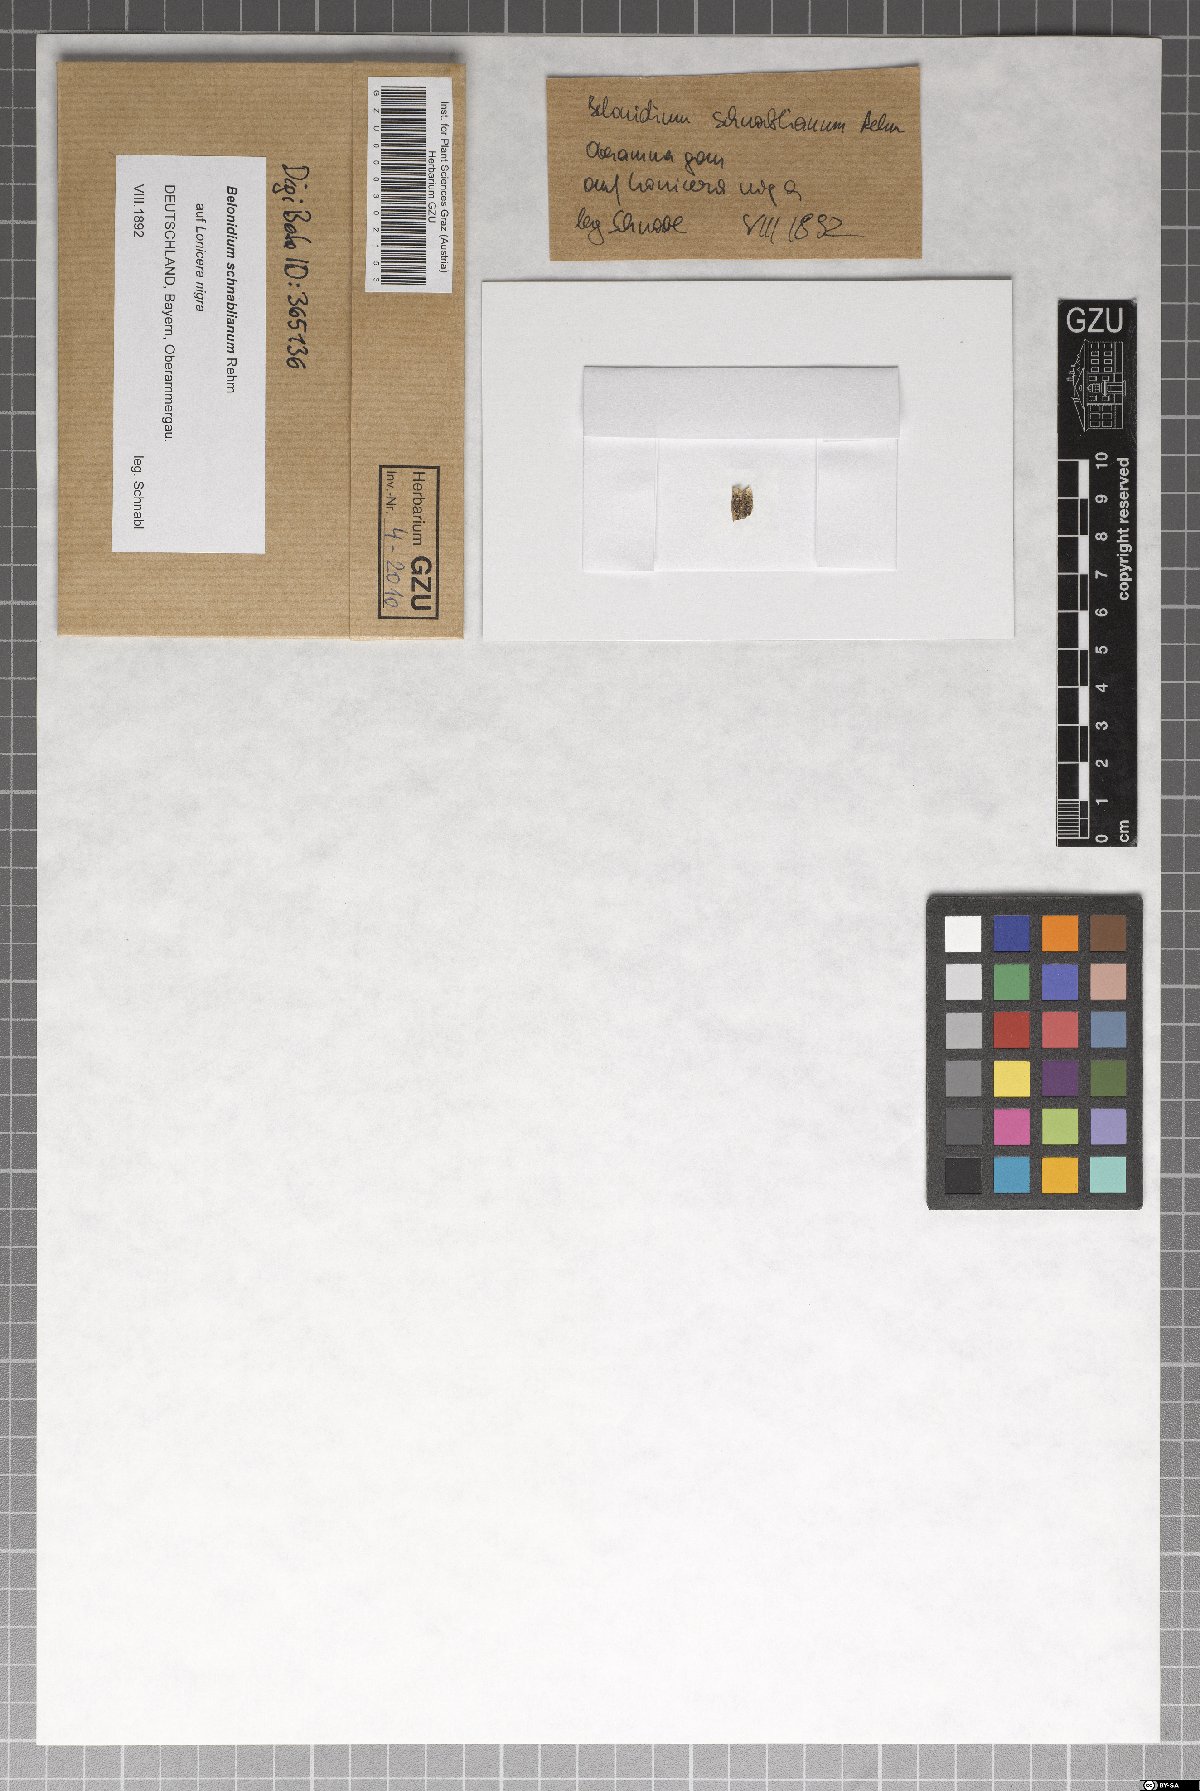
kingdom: Fungi
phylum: Ascomycota
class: Leotiomycetes
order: Helotiales
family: Ploettnerulaceae
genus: Belonium
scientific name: Belonium schnablianum
